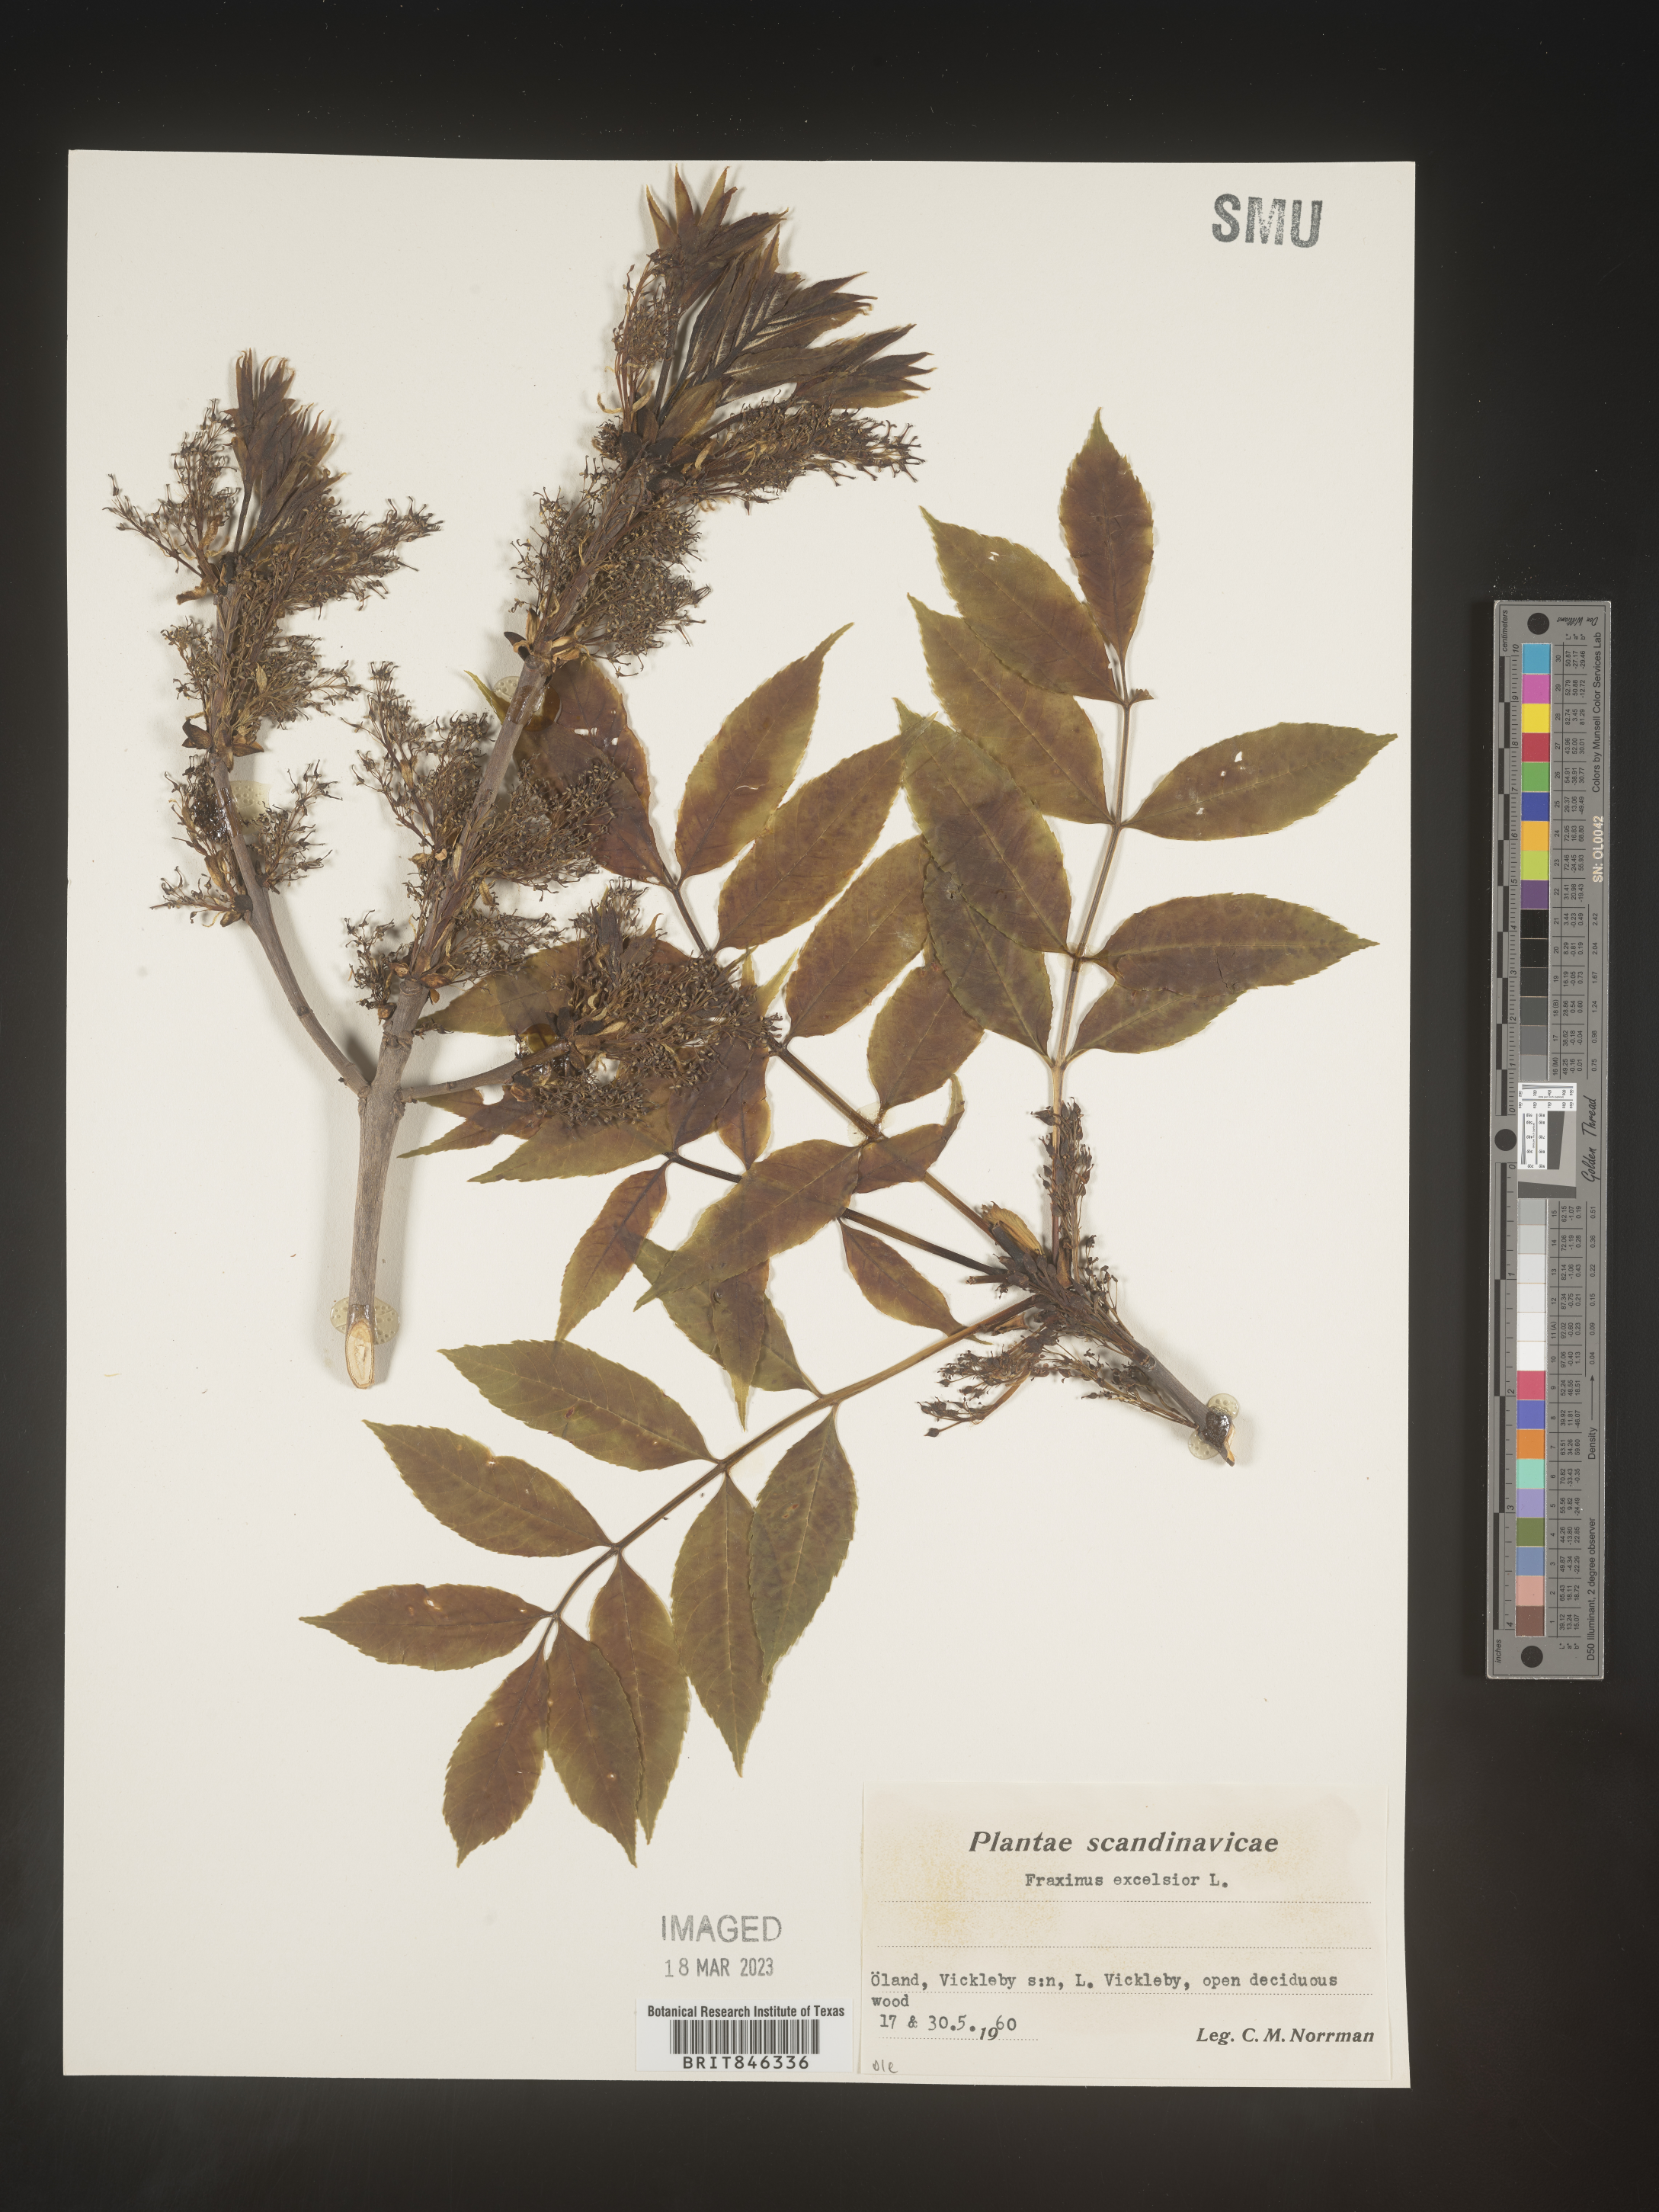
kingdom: Plantae
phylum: Tracheophyta
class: Magnoliopsida
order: Lamiales
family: Oleaceae
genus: Fraxinus
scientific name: Fraxinus
